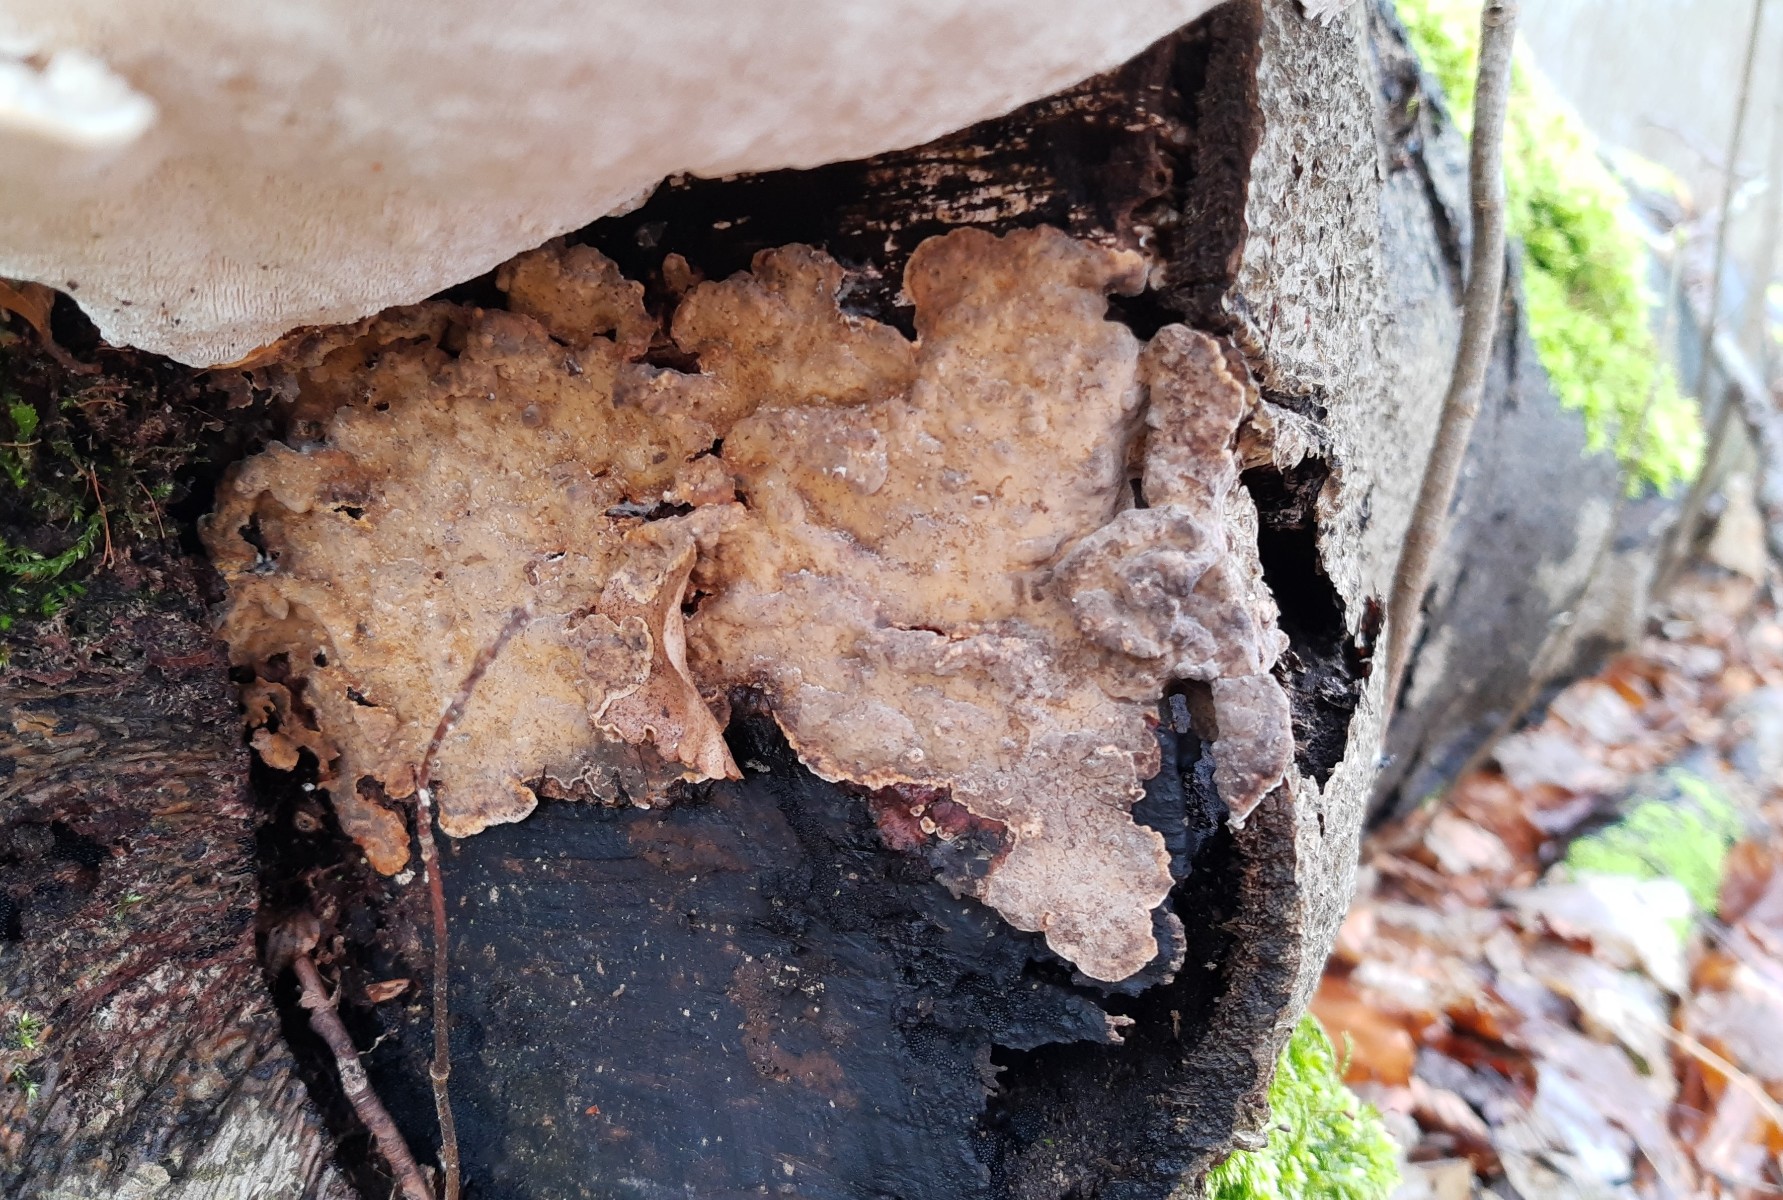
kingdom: Fungi
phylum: Basidiomycota
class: Agaricomycetes
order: Russulales
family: Stereaceae
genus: Stereum
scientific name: Stereum rugosum
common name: rynket lædersvamp
